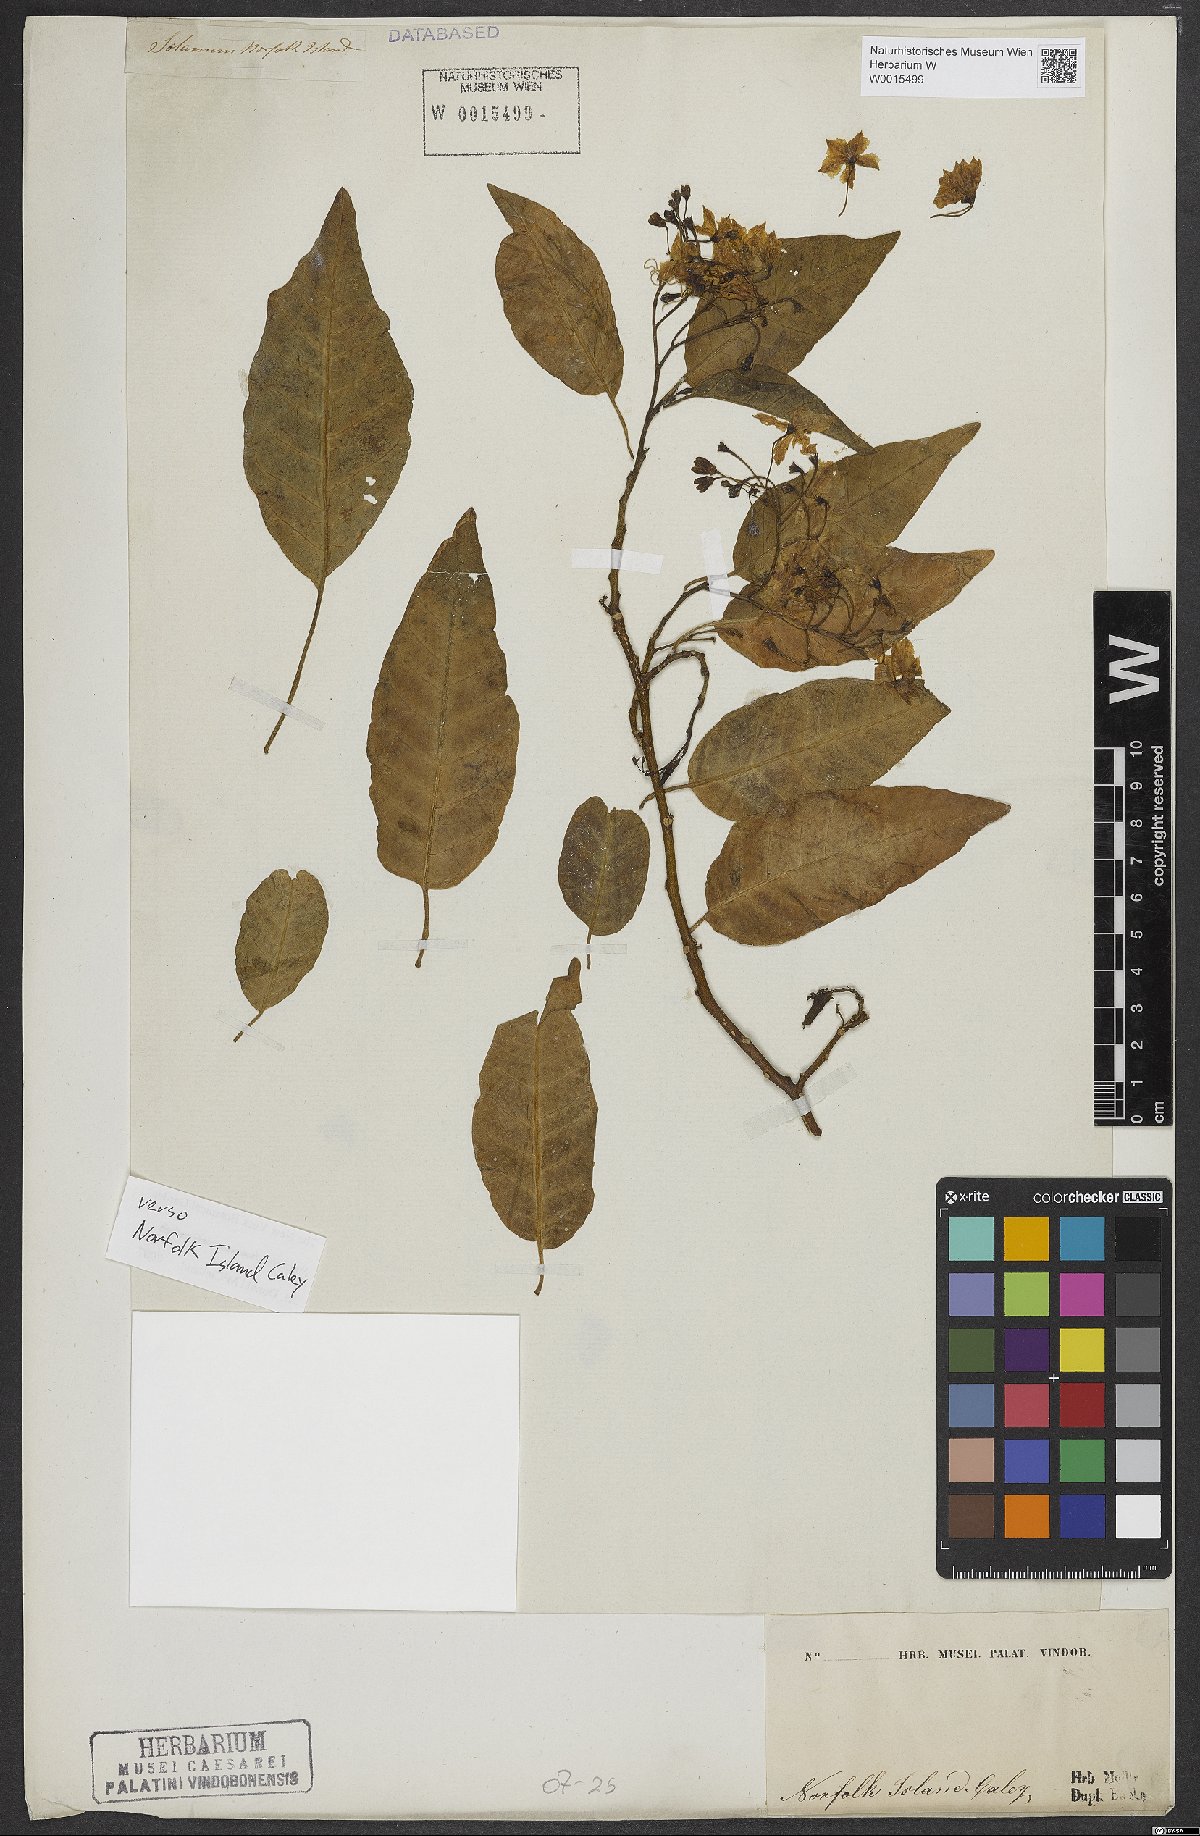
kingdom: Plantae
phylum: Tracheophyta
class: Magnoliopsida
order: Solanales
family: Solanaceae
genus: Solanum
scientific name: Solanum bauerianum
